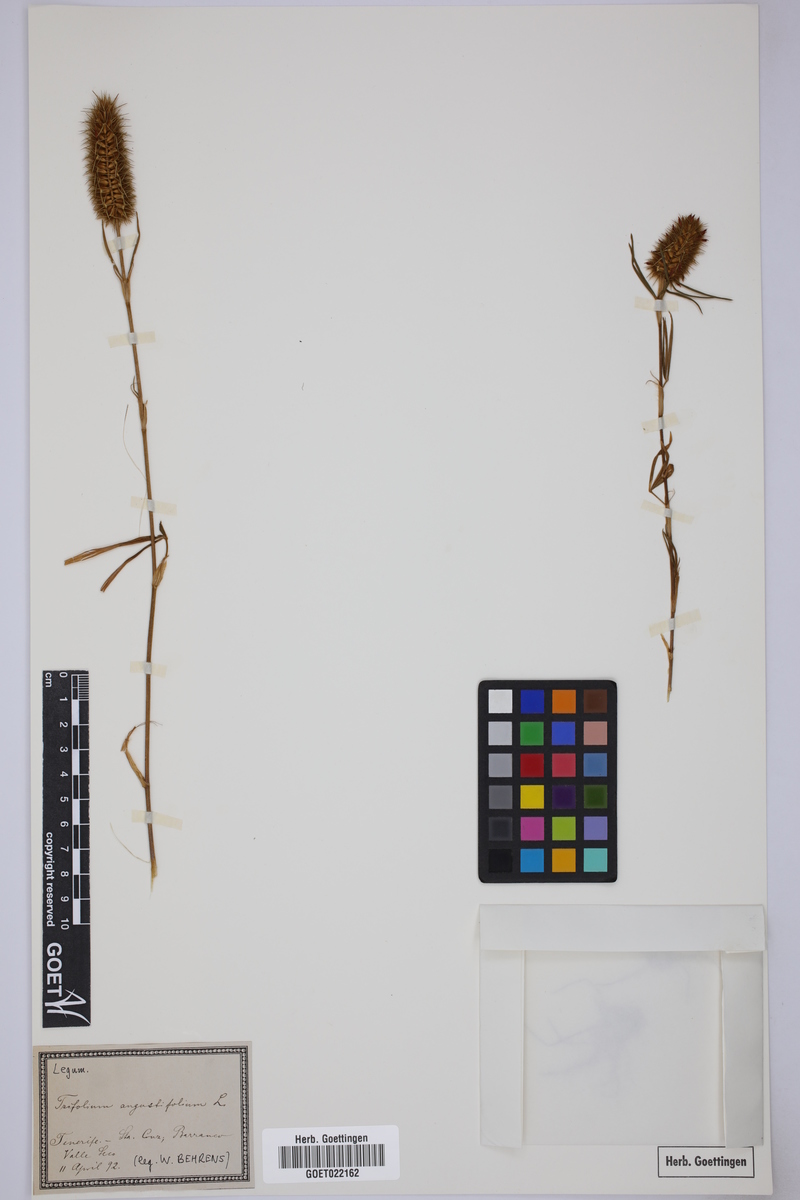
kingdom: Plantae
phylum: Tracheophyta
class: Magnoliopsida
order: Fabales
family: Fabaceae
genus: Trifolium
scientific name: Trifolium angustifolium
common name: Narrow clover
